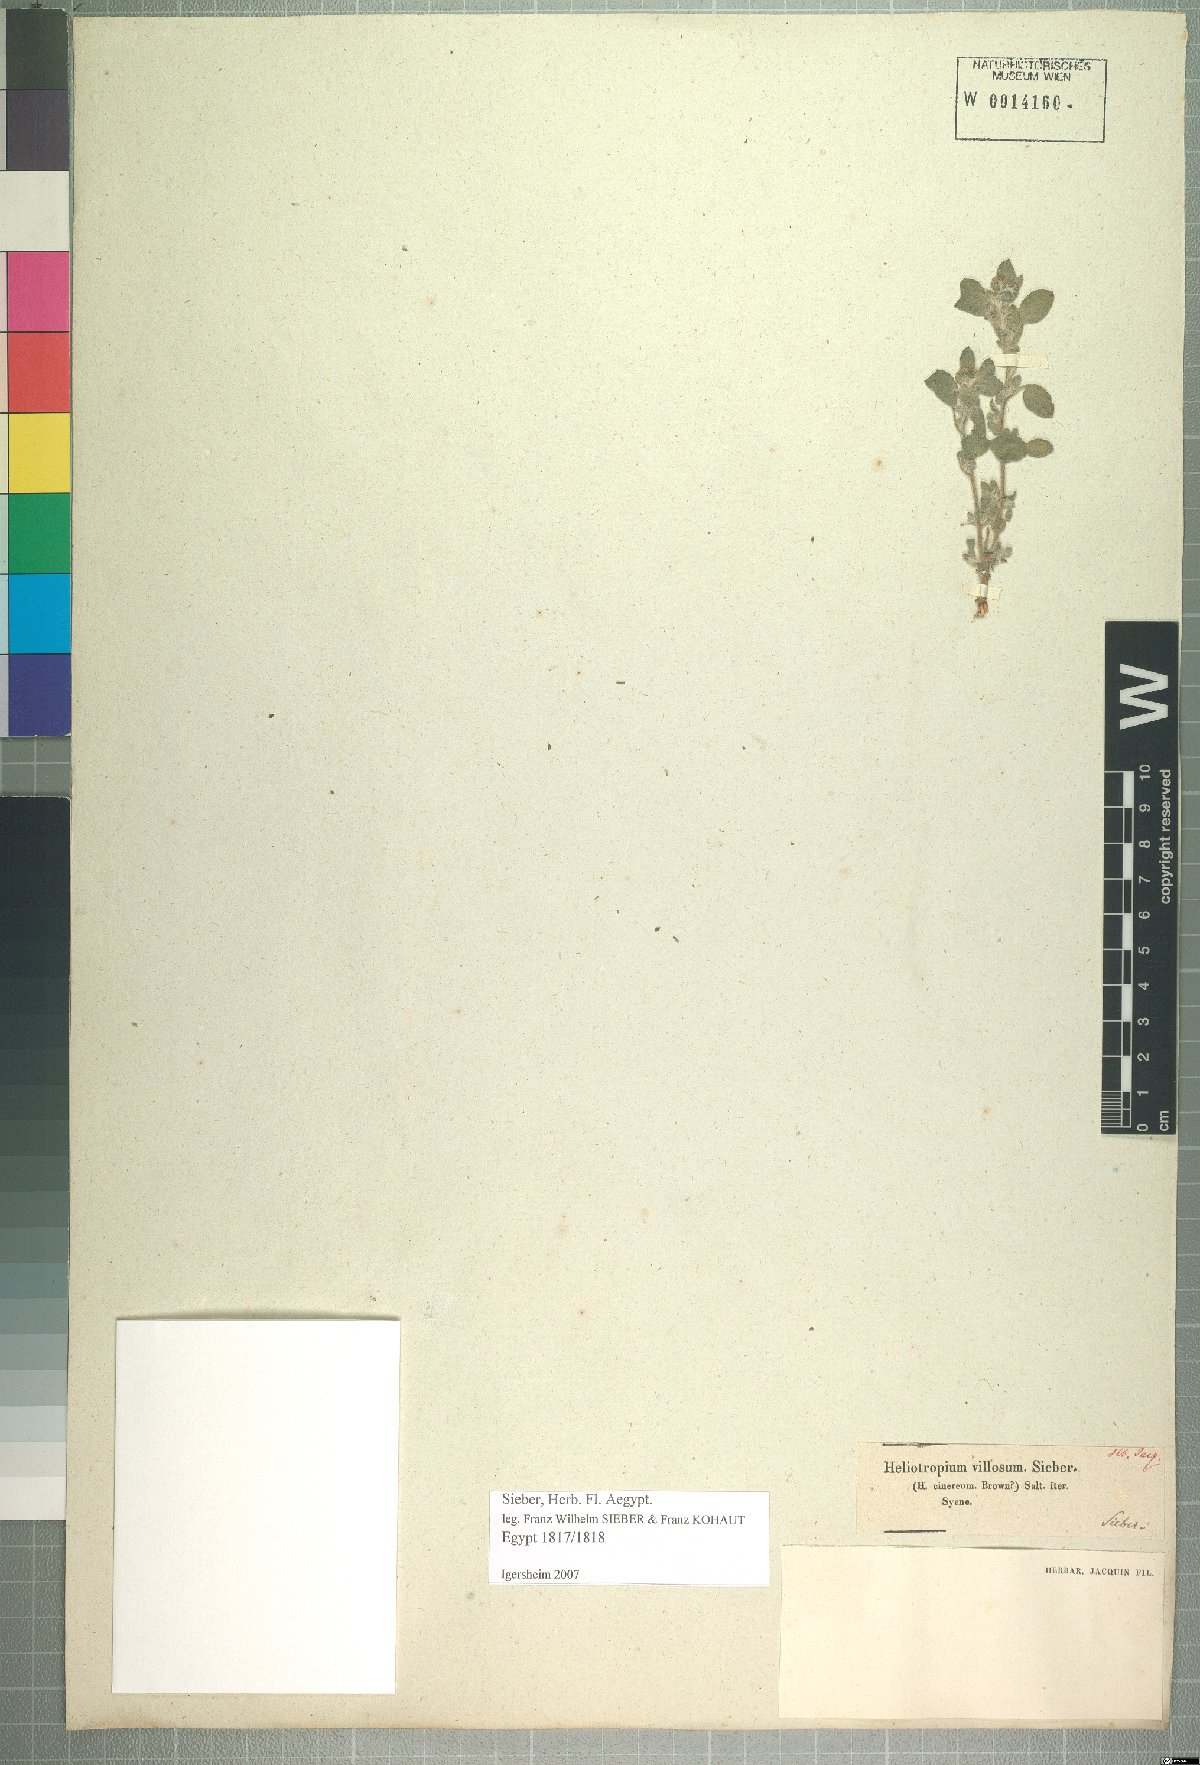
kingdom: Plantae
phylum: Tracheophyta
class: Magnoliopsida
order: Boraginales
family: Heliotropiaceae
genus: Euploca
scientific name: Euploca ovalifolia
